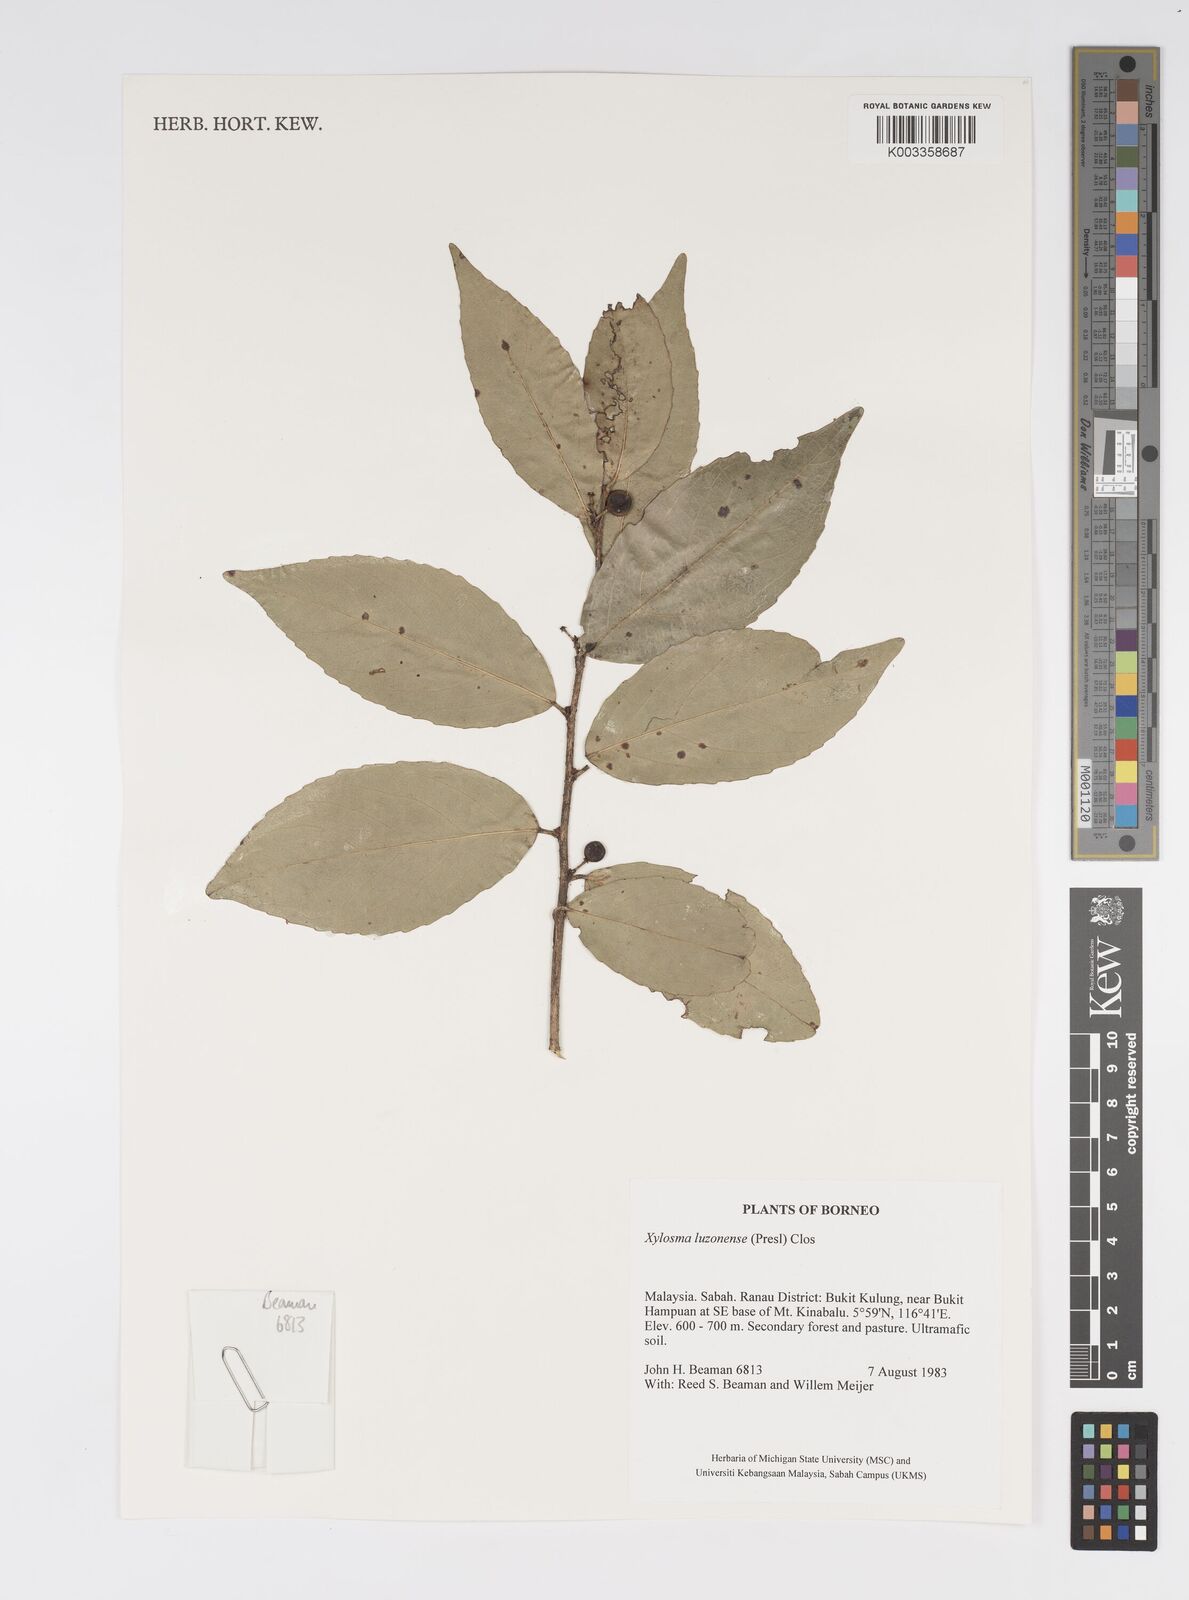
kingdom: Plantae
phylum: Tracheophyta
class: Magnoliopsida
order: Malpighiales
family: Salicaceae
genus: Xylosma
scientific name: Xylosma luzonensis
